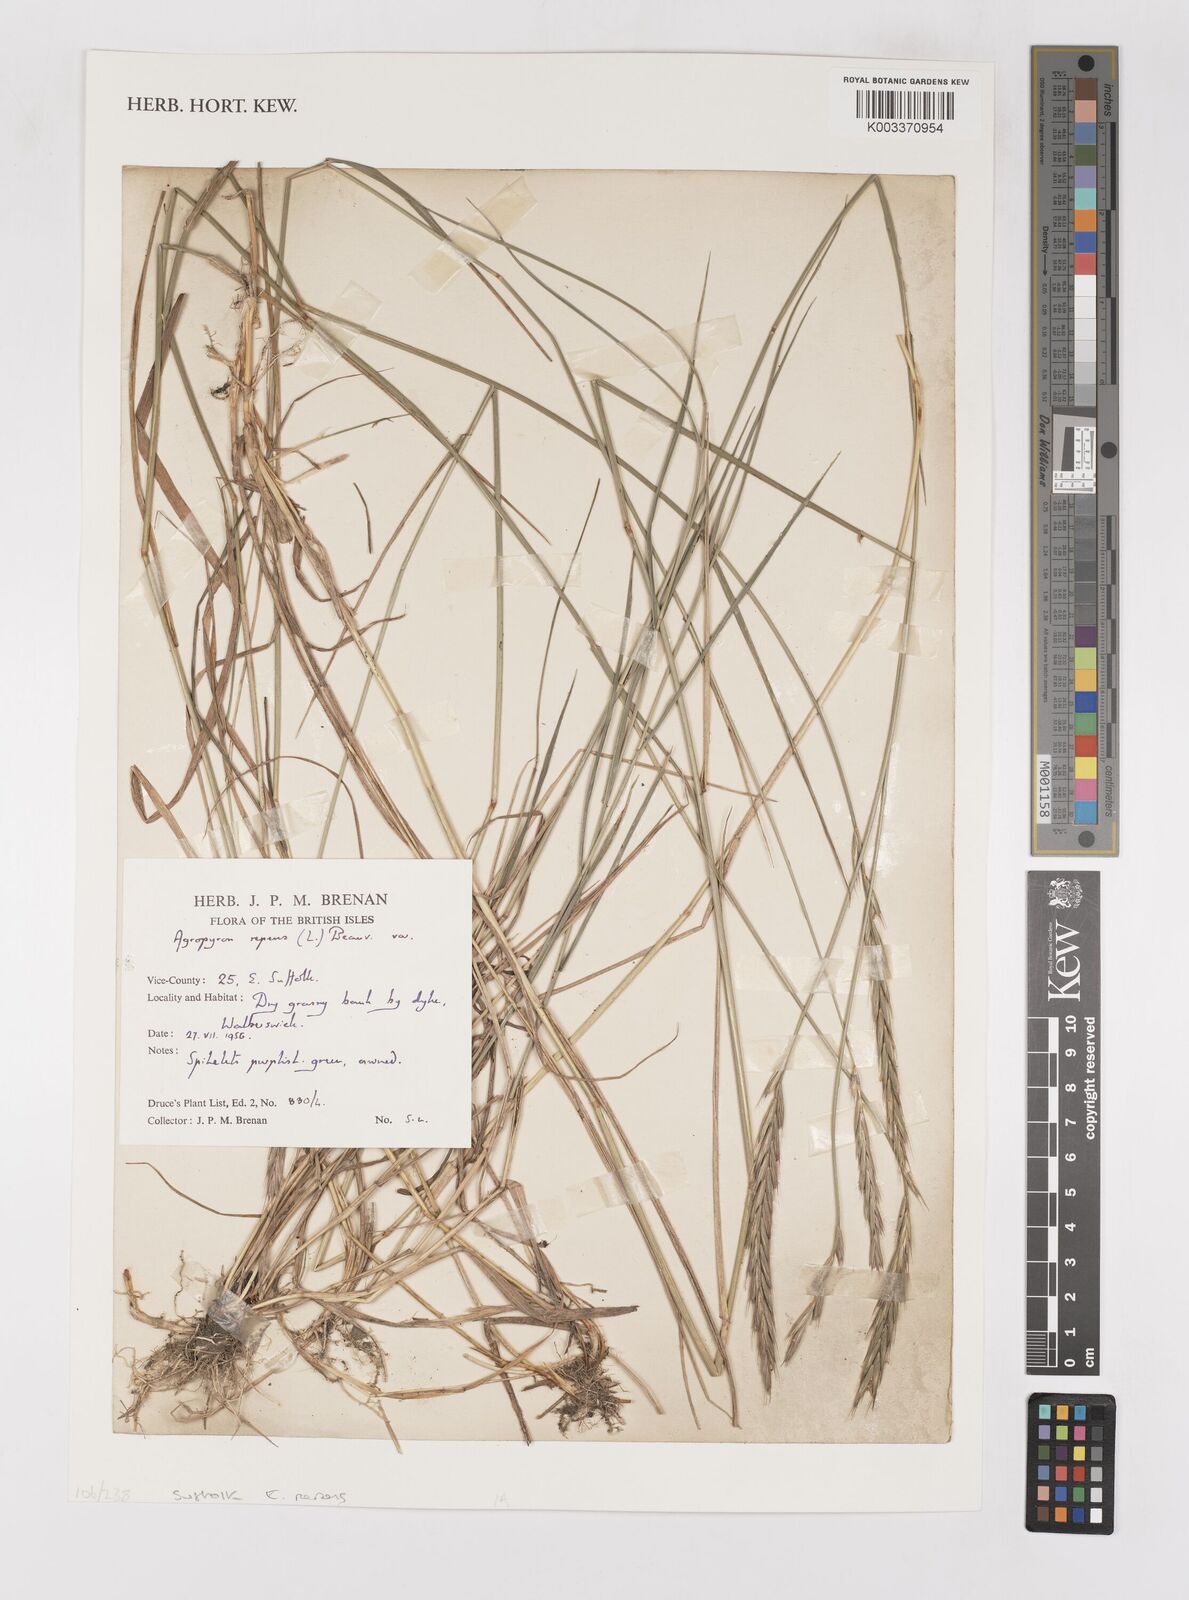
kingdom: Plantae
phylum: Tracheophyta
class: Liliopsida
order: Poales
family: Poaceae
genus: Elymus
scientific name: Elymus repens
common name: Quackgrass
